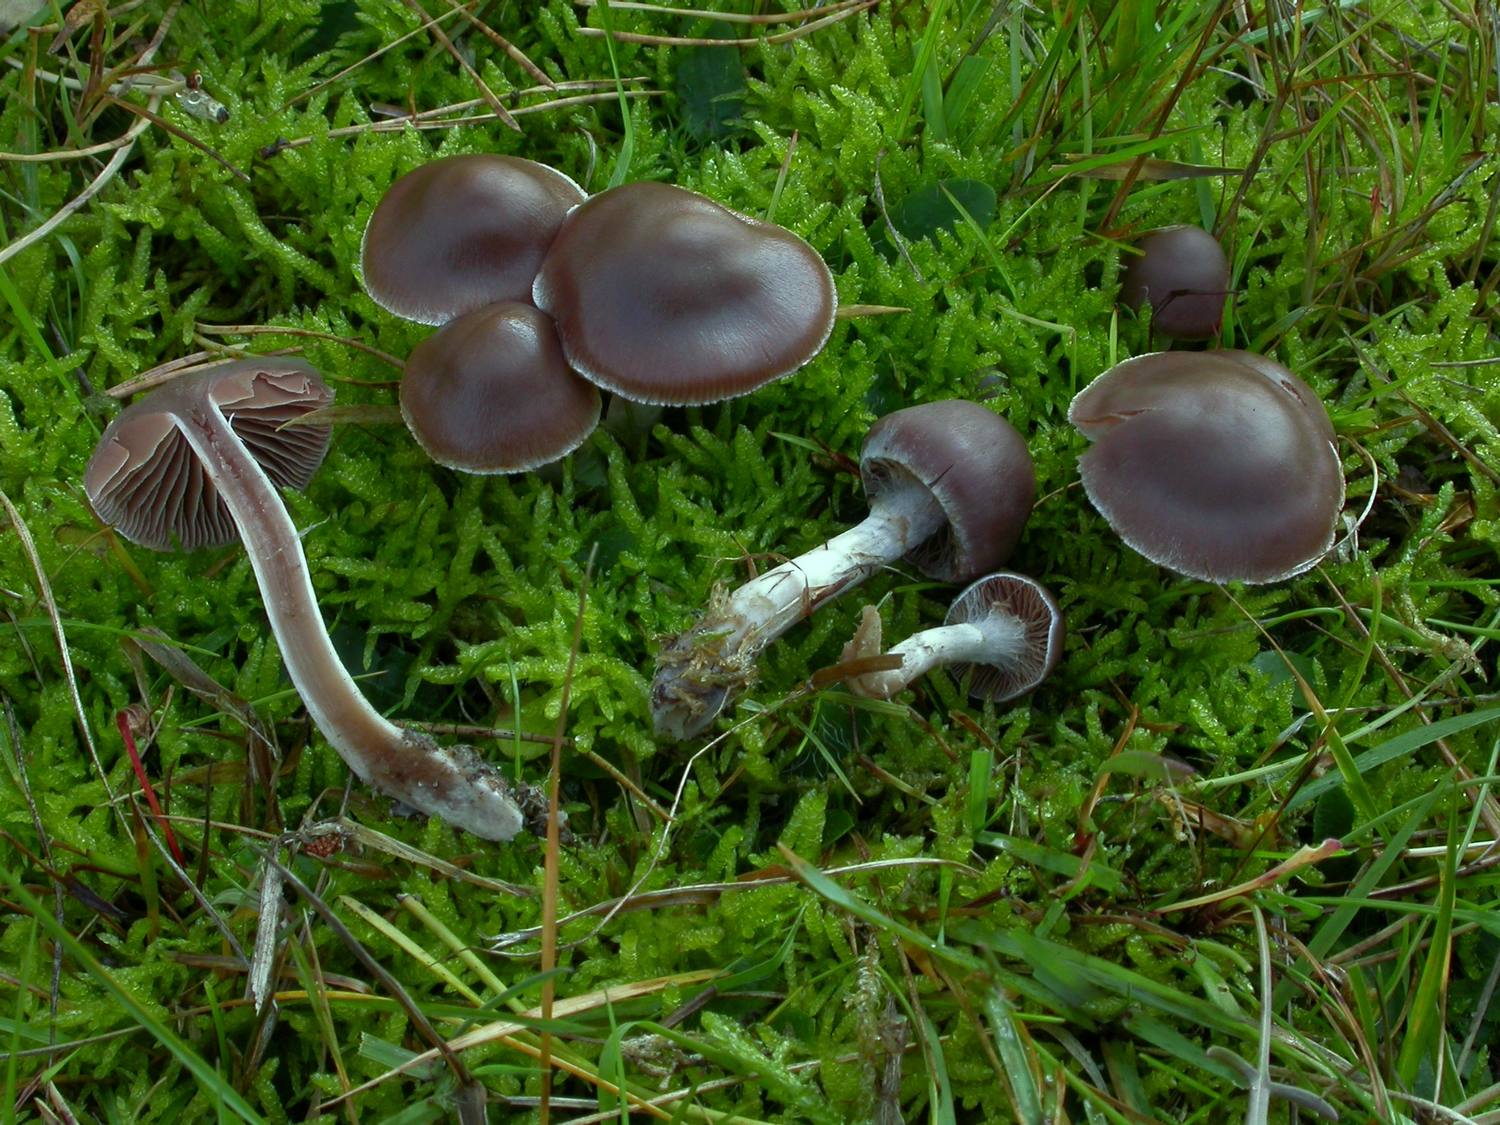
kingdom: Fungi
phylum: Basidiomycota
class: Agaricomycetes
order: Agaricales
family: Cortinariaceae
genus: Cortinarius
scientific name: Cortinarius umbrinolens
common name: mørk slørhat
